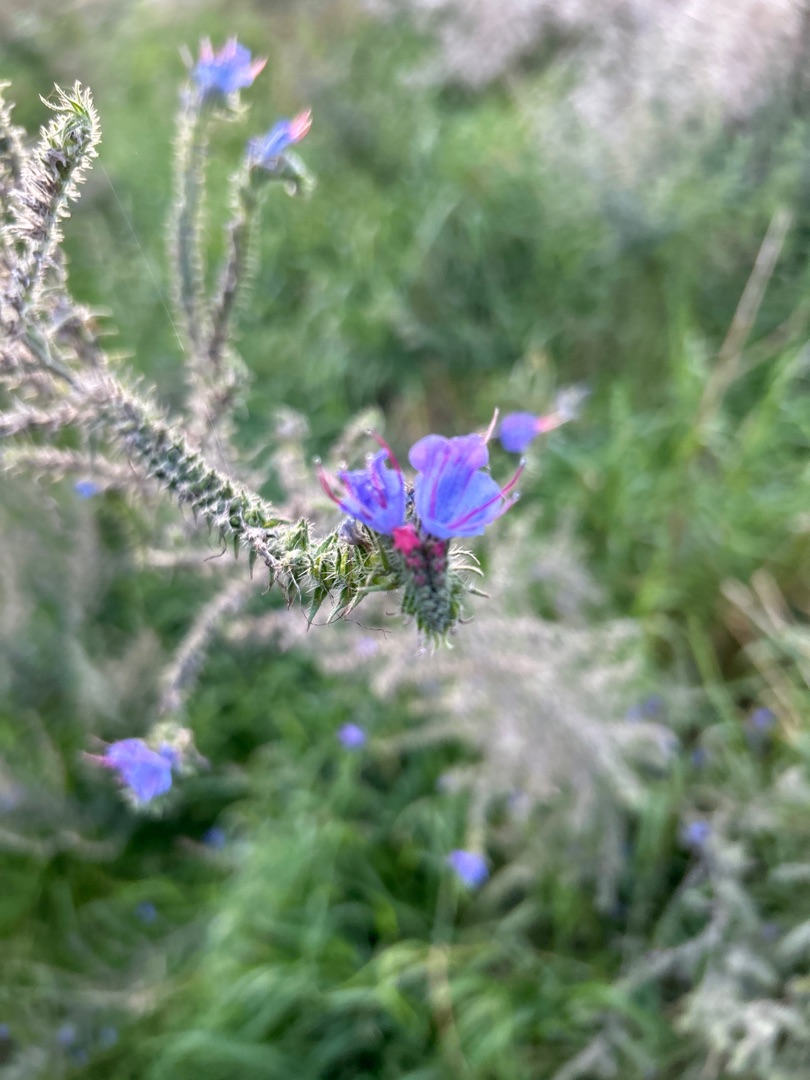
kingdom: Plantae
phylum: Tracheophyta
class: Magnoliopsida
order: Boraginales
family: Boraginaceae
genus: Echium
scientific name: Echium vulgare
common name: Slangehoved
